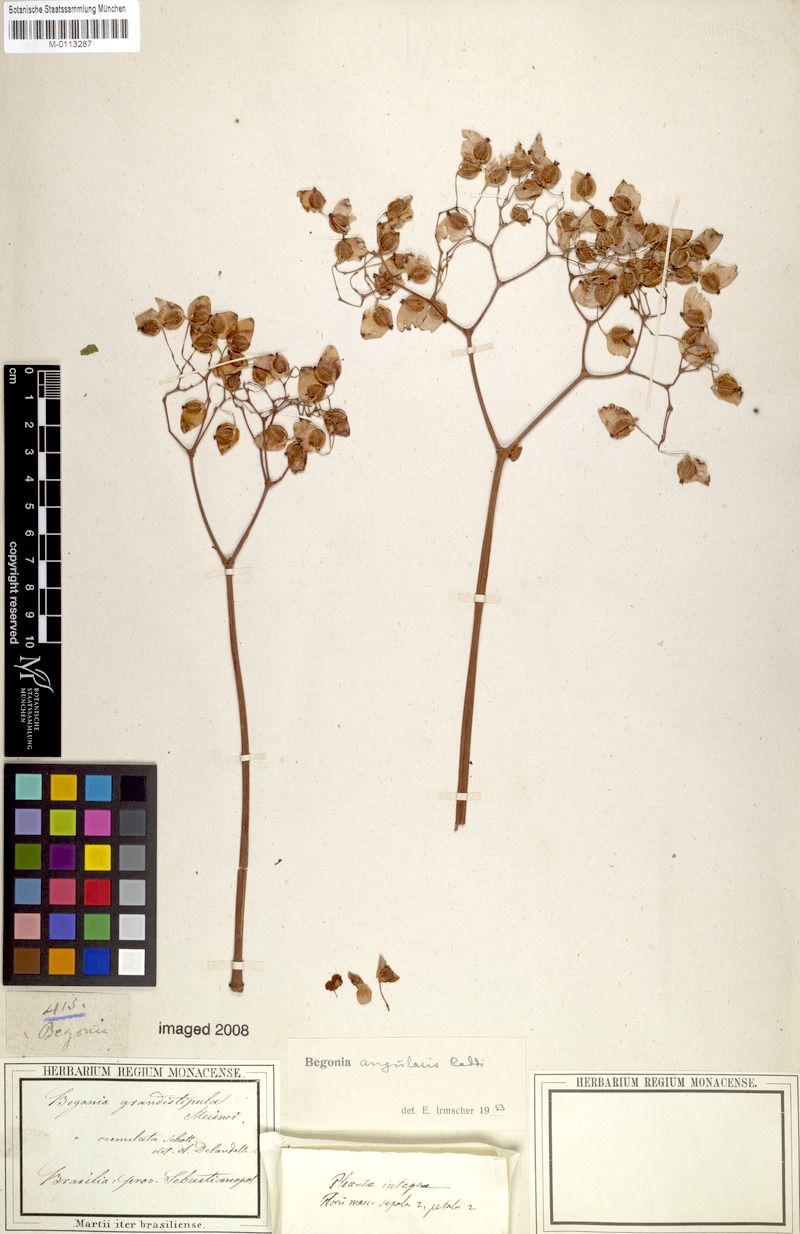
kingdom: Plantae
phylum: Tracheophyta
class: Magnoliopsida
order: Cucurbitales
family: Begoniaceae
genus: Begonia
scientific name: Begonia angularis
